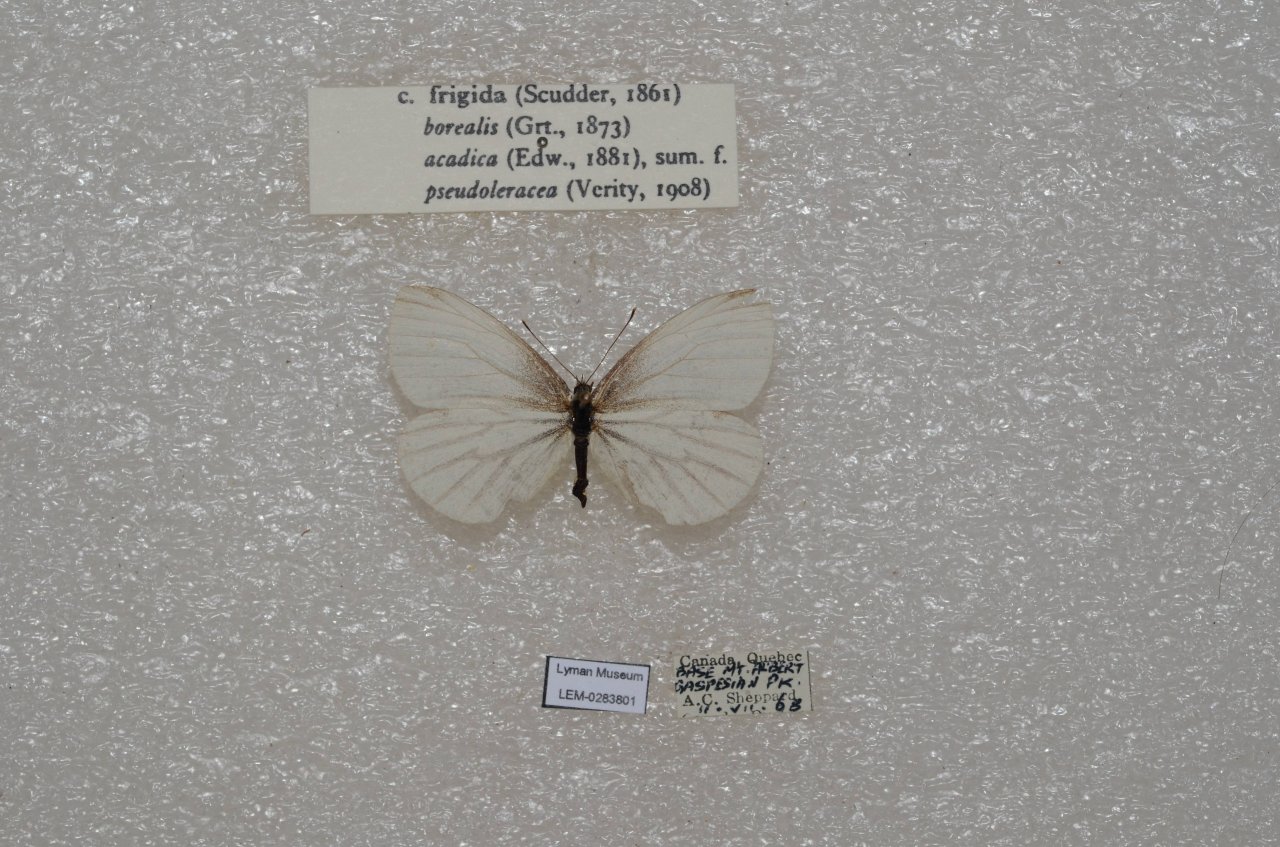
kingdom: Animalia
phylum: Arthropoda
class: Insecta
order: Lepidoptera
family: Pieridae
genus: Pieris
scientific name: Pieris oleracea
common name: Mustard White
